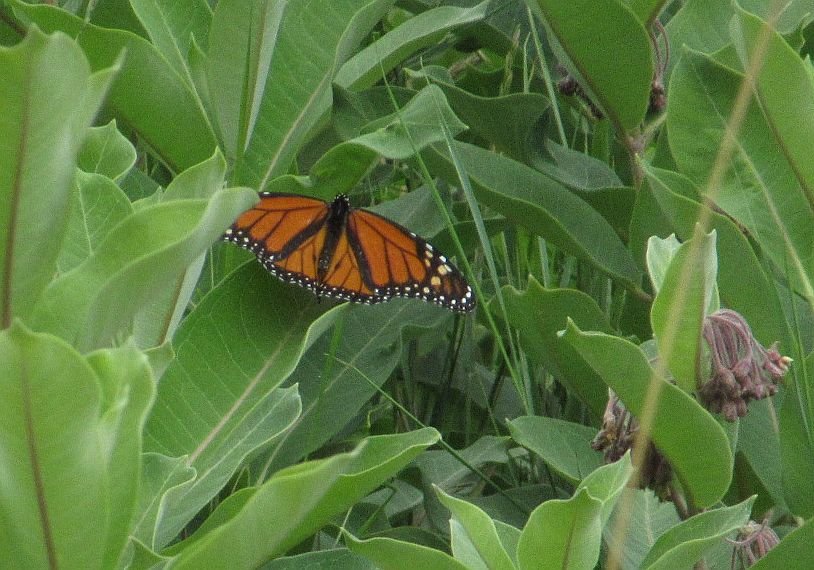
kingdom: Animalia
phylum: Arthropoda
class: Insecta
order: Lepidoptera
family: Nymphalidae
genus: Danaus
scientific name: Danaus plexippus
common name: Monarch
